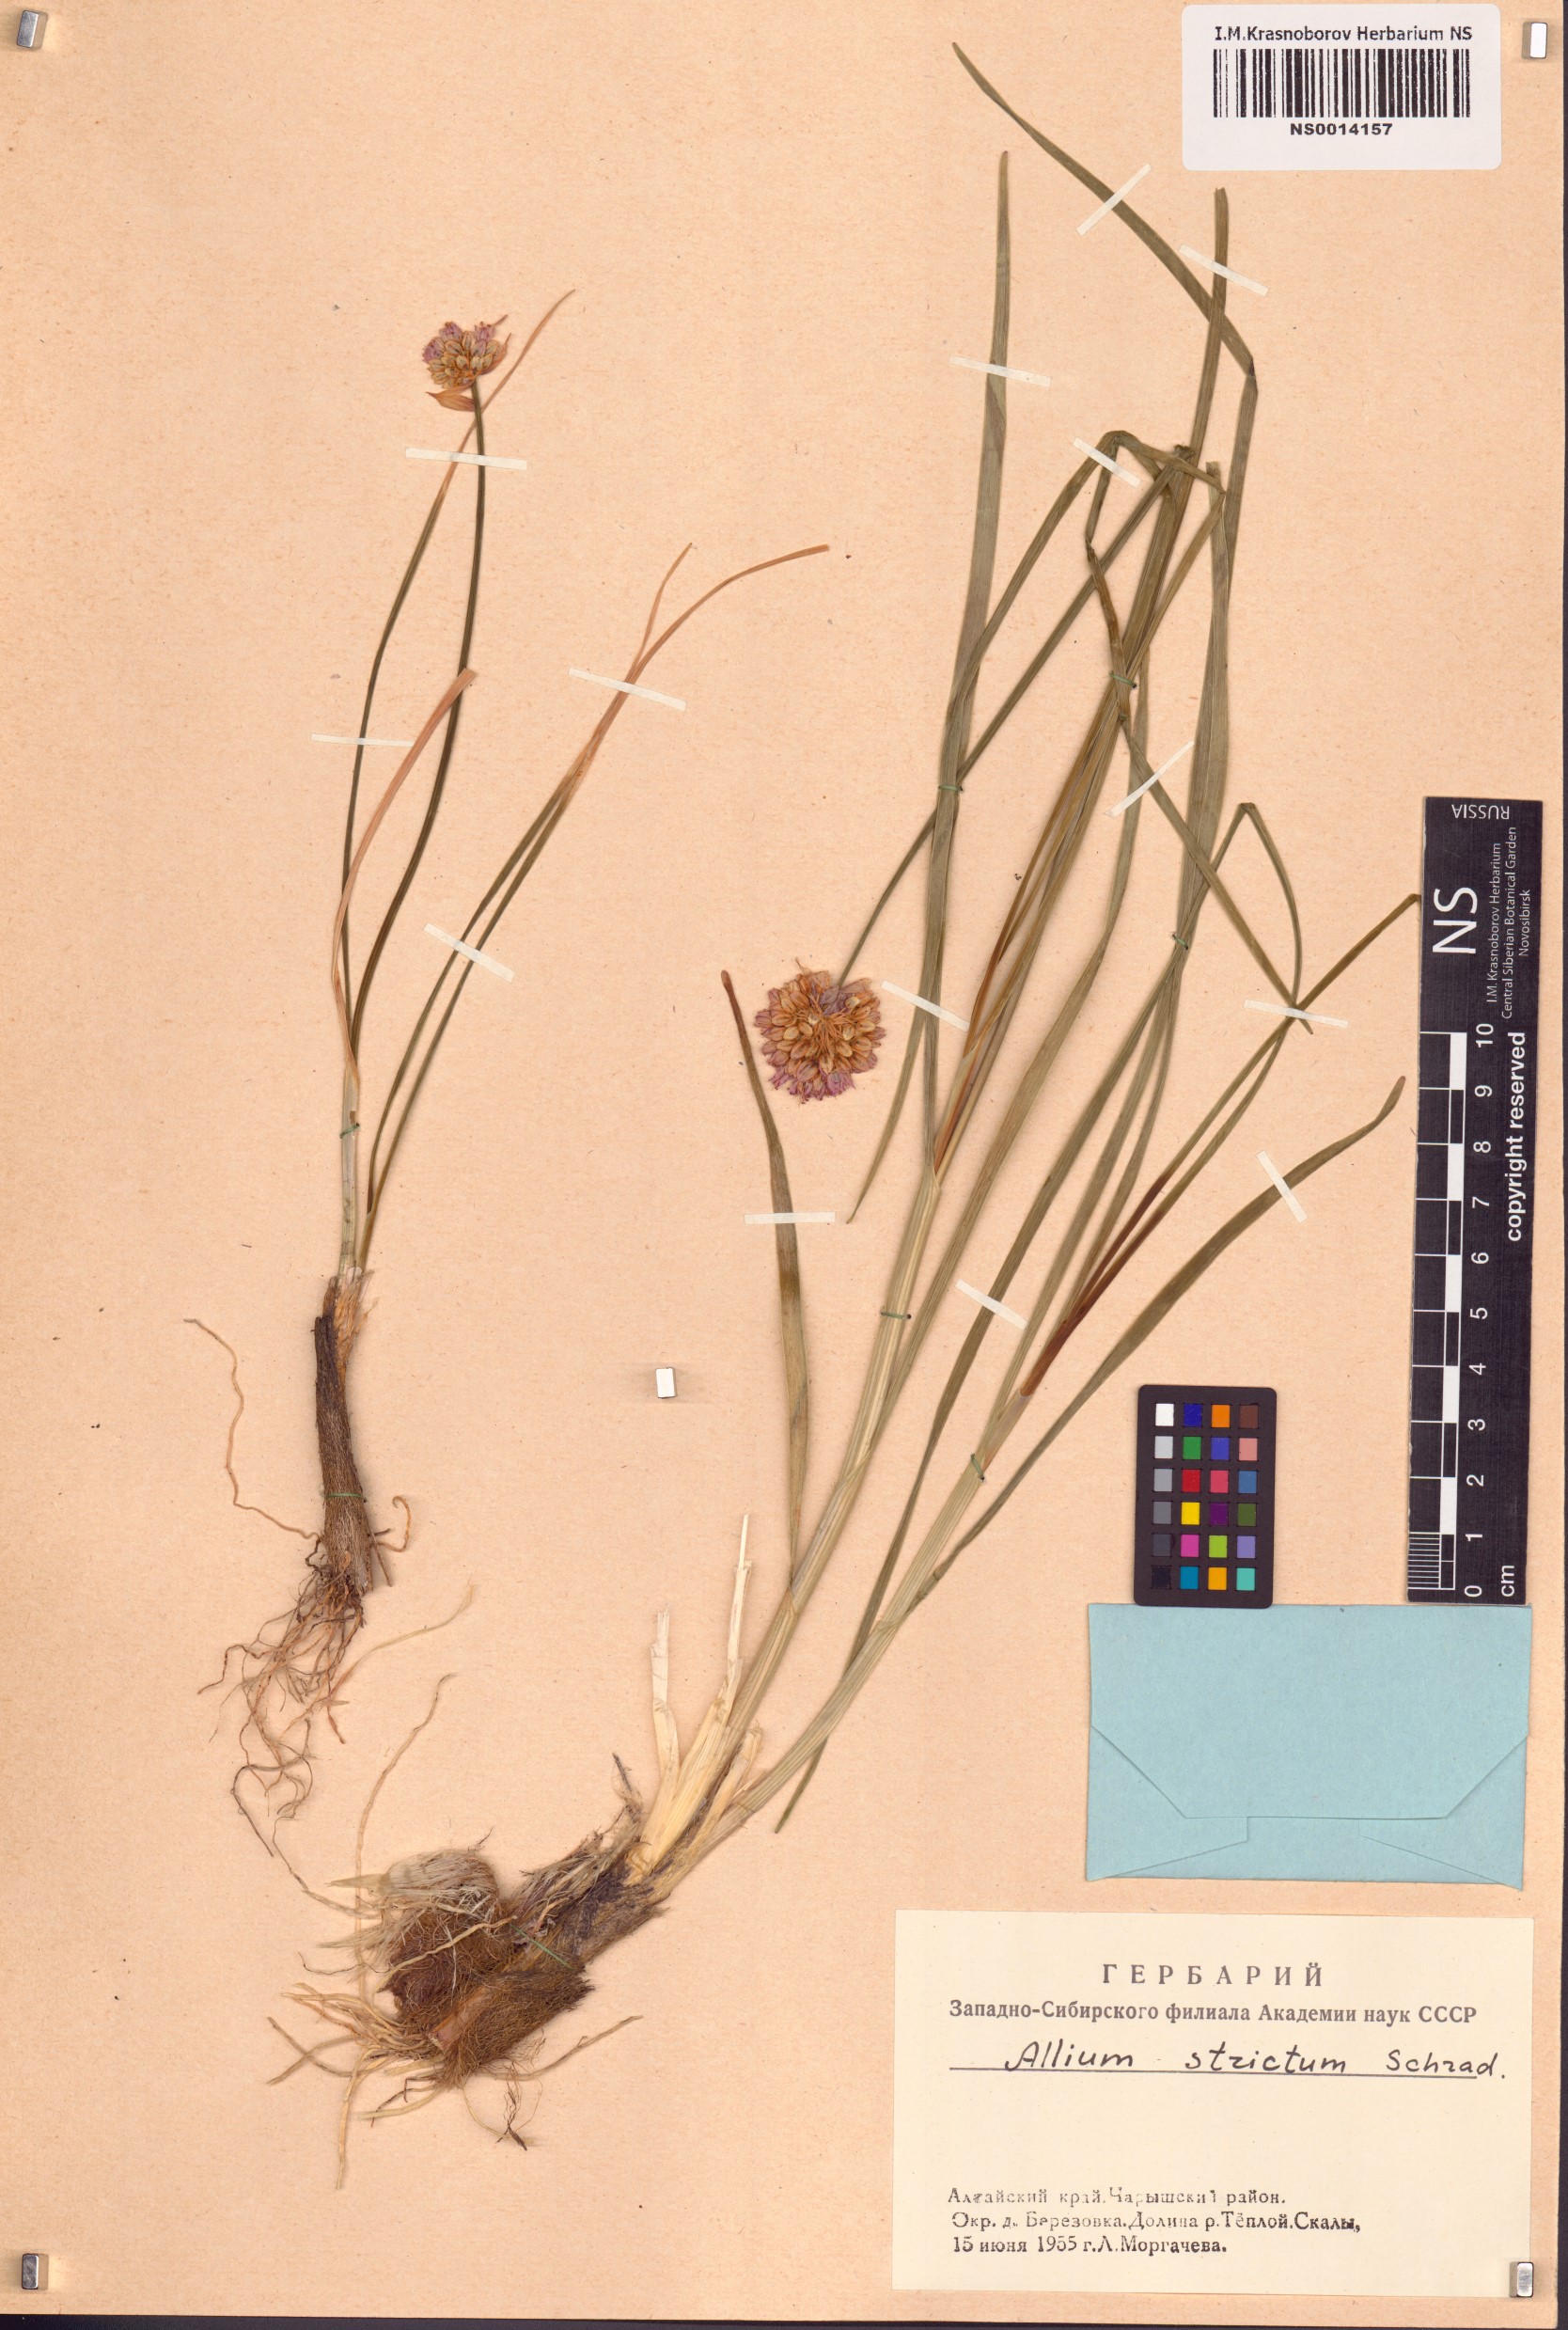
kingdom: Plantae
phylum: Tracheophyta
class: Liliopsida
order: Asparagales
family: Amaryllidaceae
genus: Allium
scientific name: Allium strictum
